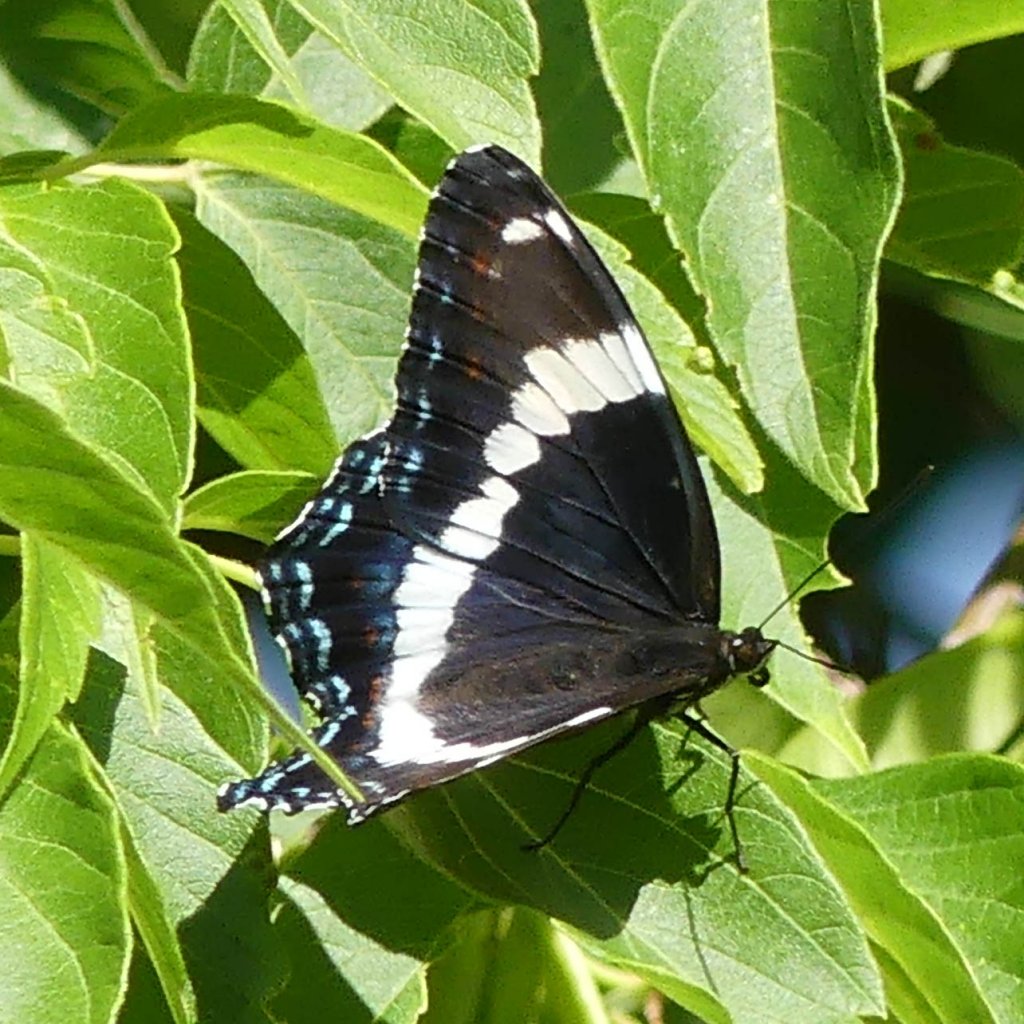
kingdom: Animalia
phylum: Arthropoda
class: Insecta
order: Lepidoptera
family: Nymphalidae
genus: Limenitis
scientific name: Limenitis arthemis
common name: Red-spotted Admiral
